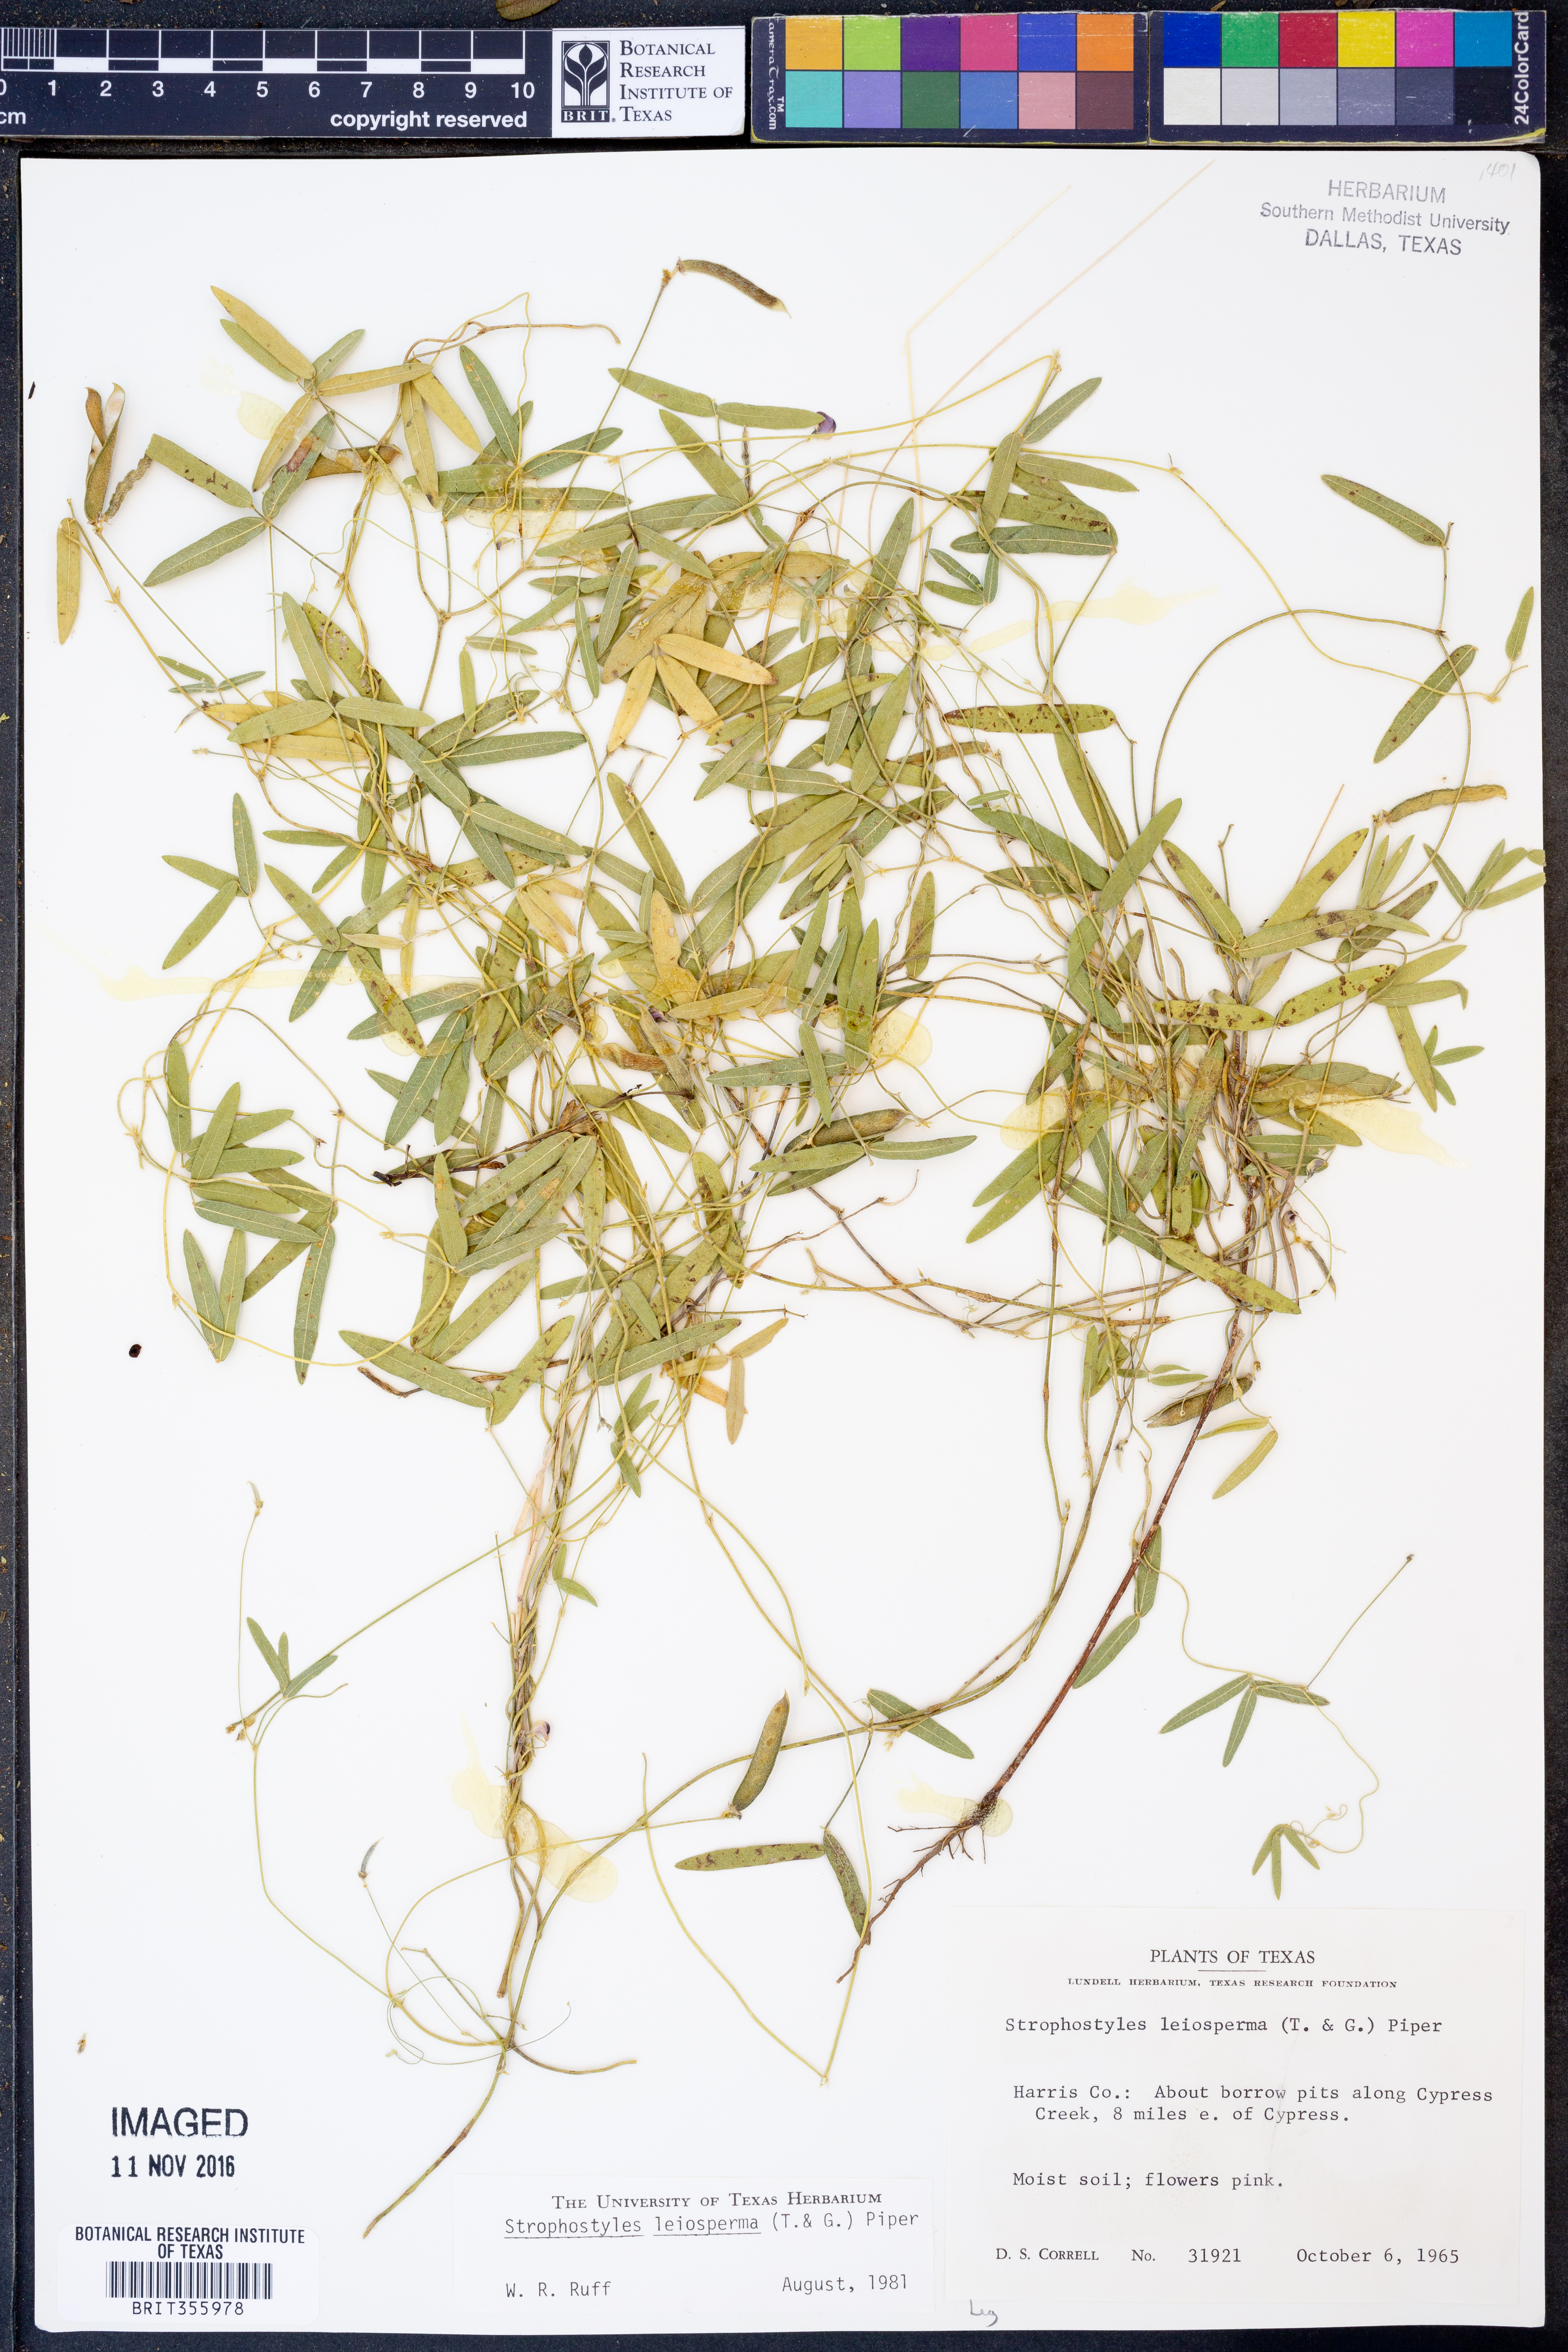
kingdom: Plantae
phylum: Tracheophyta
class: Magnoliopsida
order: Fabales
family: Fabaceae
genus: Strophostyles
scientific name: Strophostyles leiosperma
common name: Smooth-seed wild bean
